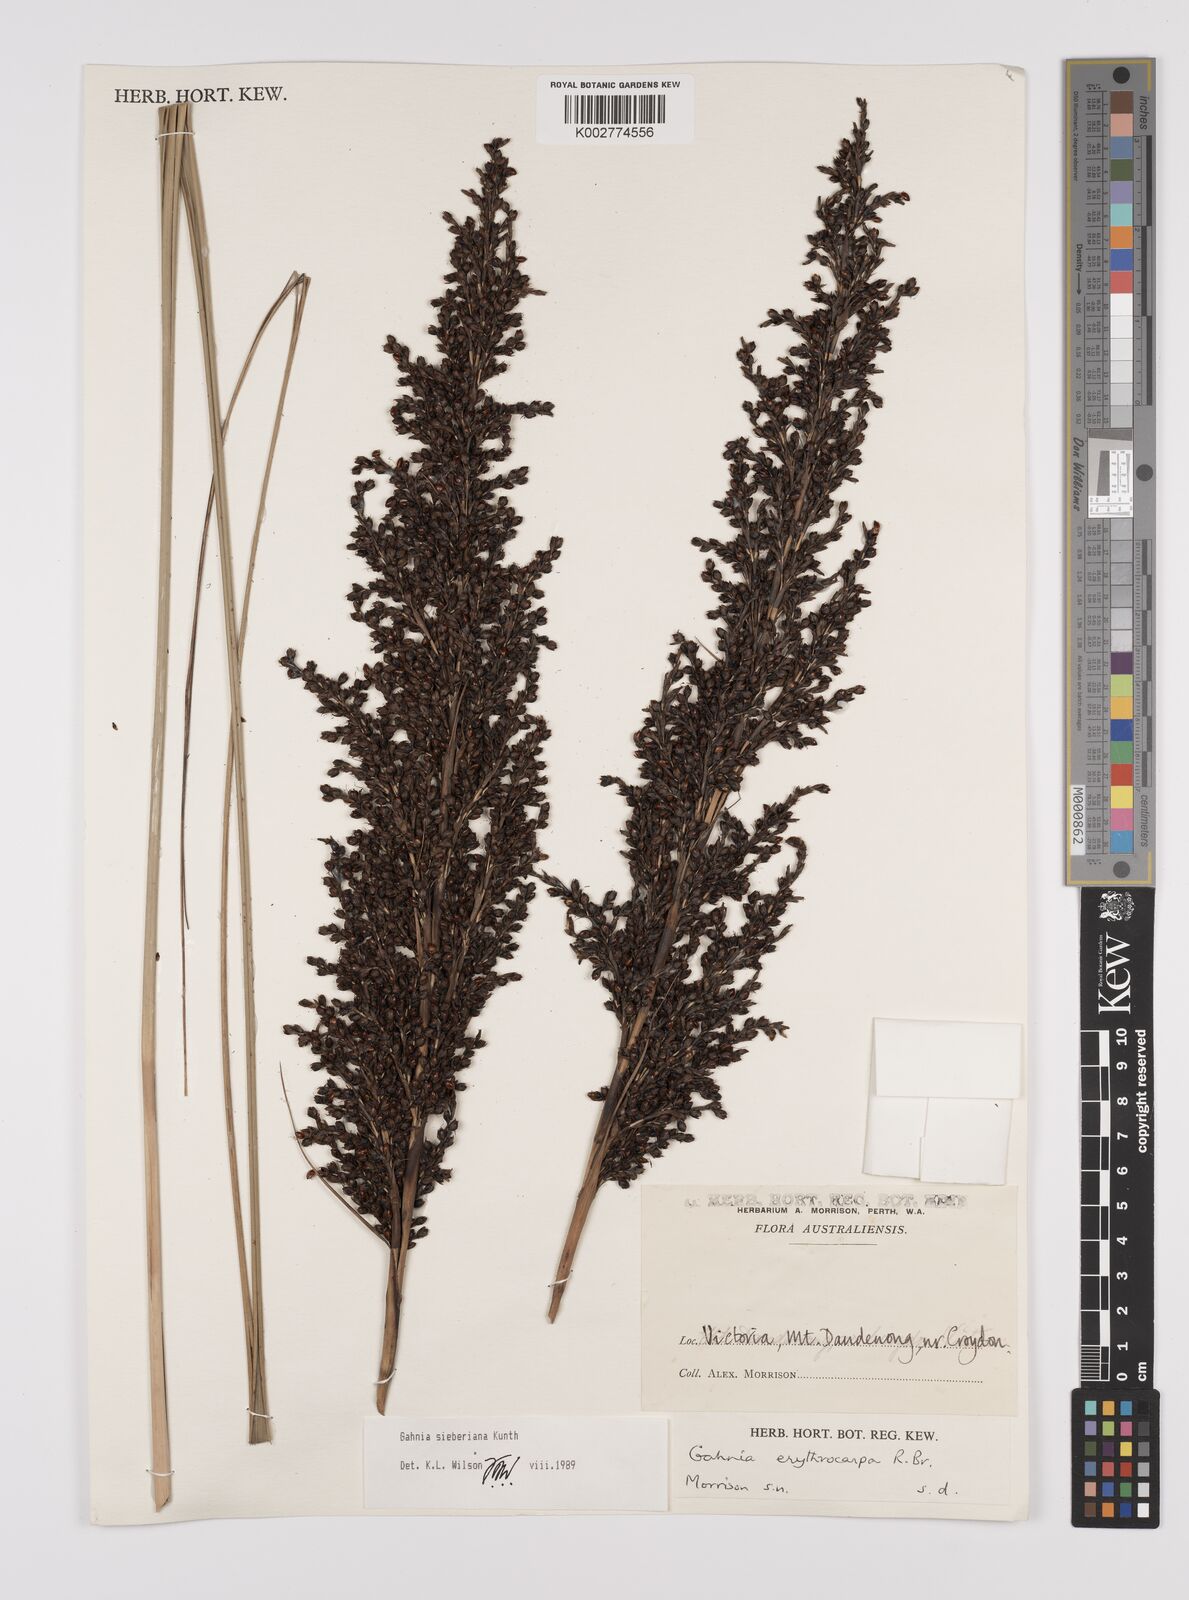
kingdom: Plantae
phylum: Tracheophyta
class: Liliopsida
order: Poales
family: Cyperaceae
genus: Gahnia
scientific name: Gahnia sieberiana
